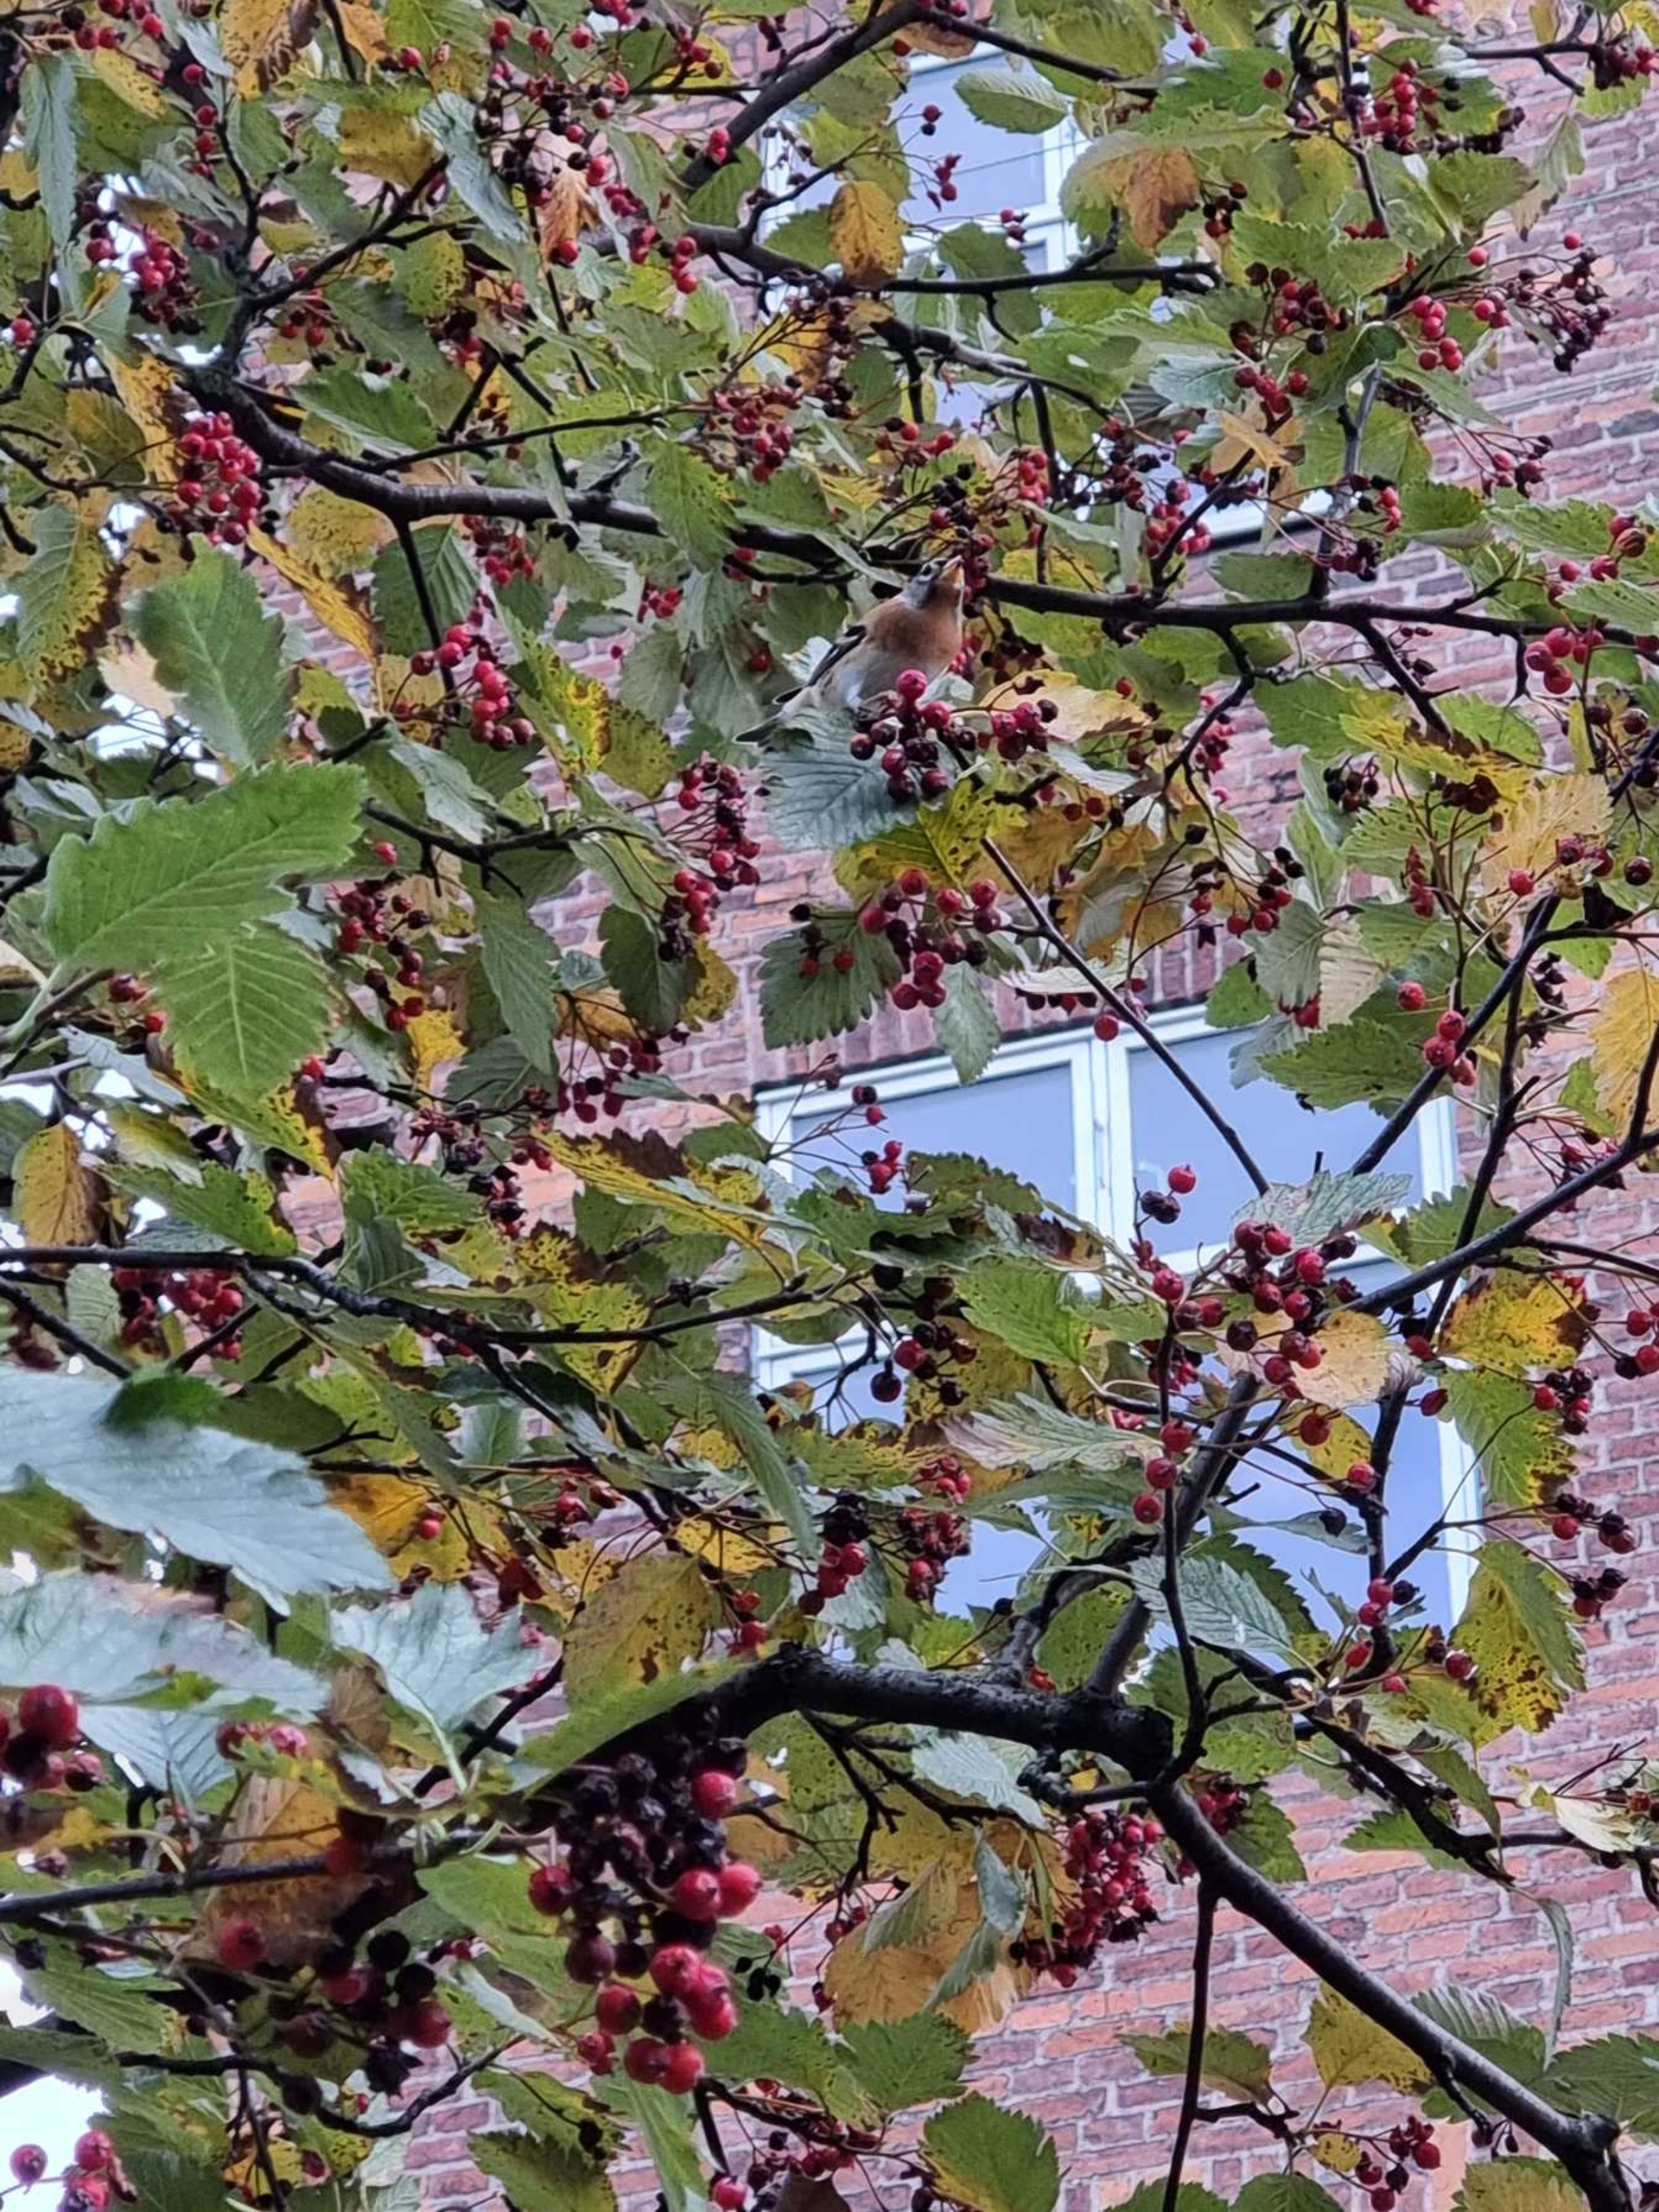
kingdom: Animalia
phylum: Chordata
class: Aves
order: Passeriformes
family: Fringillidae
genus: Fringilla
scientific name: Fringilla montifringilla
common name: Kvækerfinke
